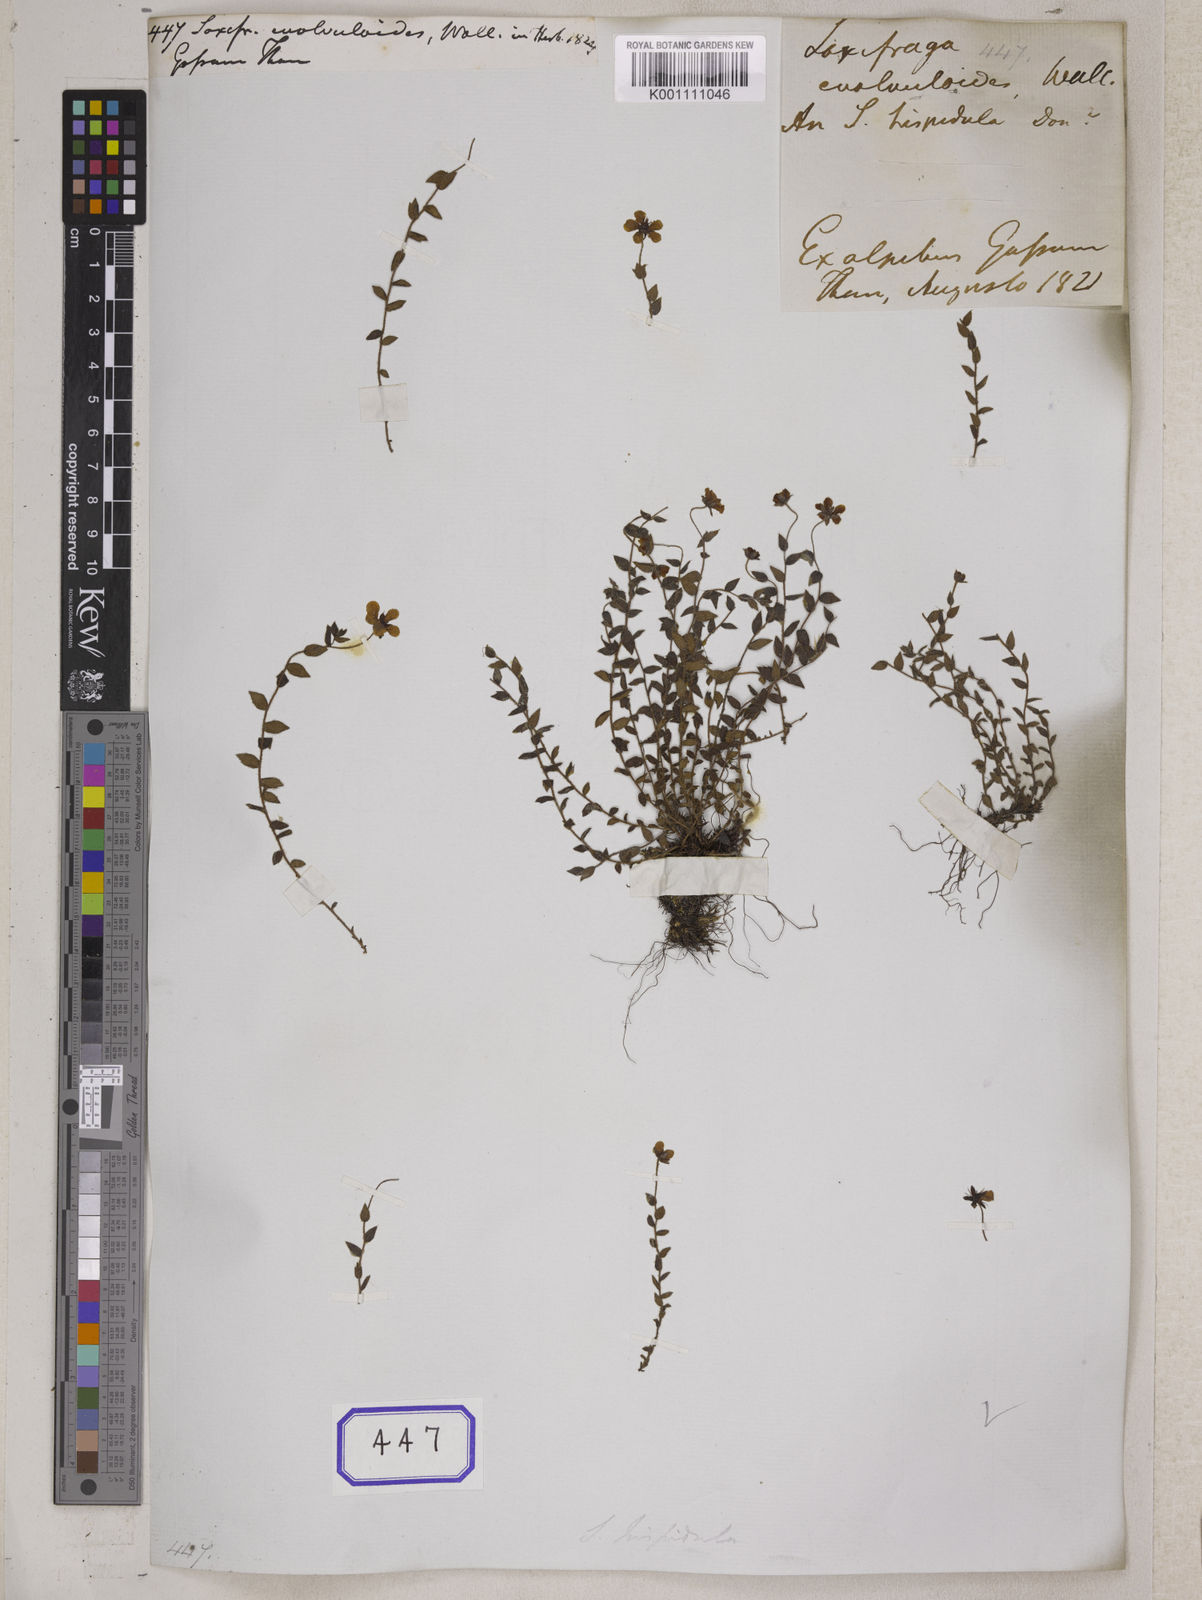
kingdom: Plantae
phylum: Tracheophyta
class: Magnoliopsida
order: Saxifragales
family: Saxifragaceae
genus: Saxifraga
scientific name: Saxifraga
